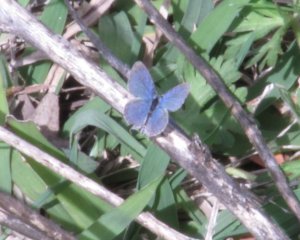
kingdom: Animalia
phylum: Arthropoda
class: Insecta
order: Lepidoptera
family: Lycaenidae
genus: Elkalyce
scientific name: Elkalyce comyntas
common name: Eastern Tailed-Blue
